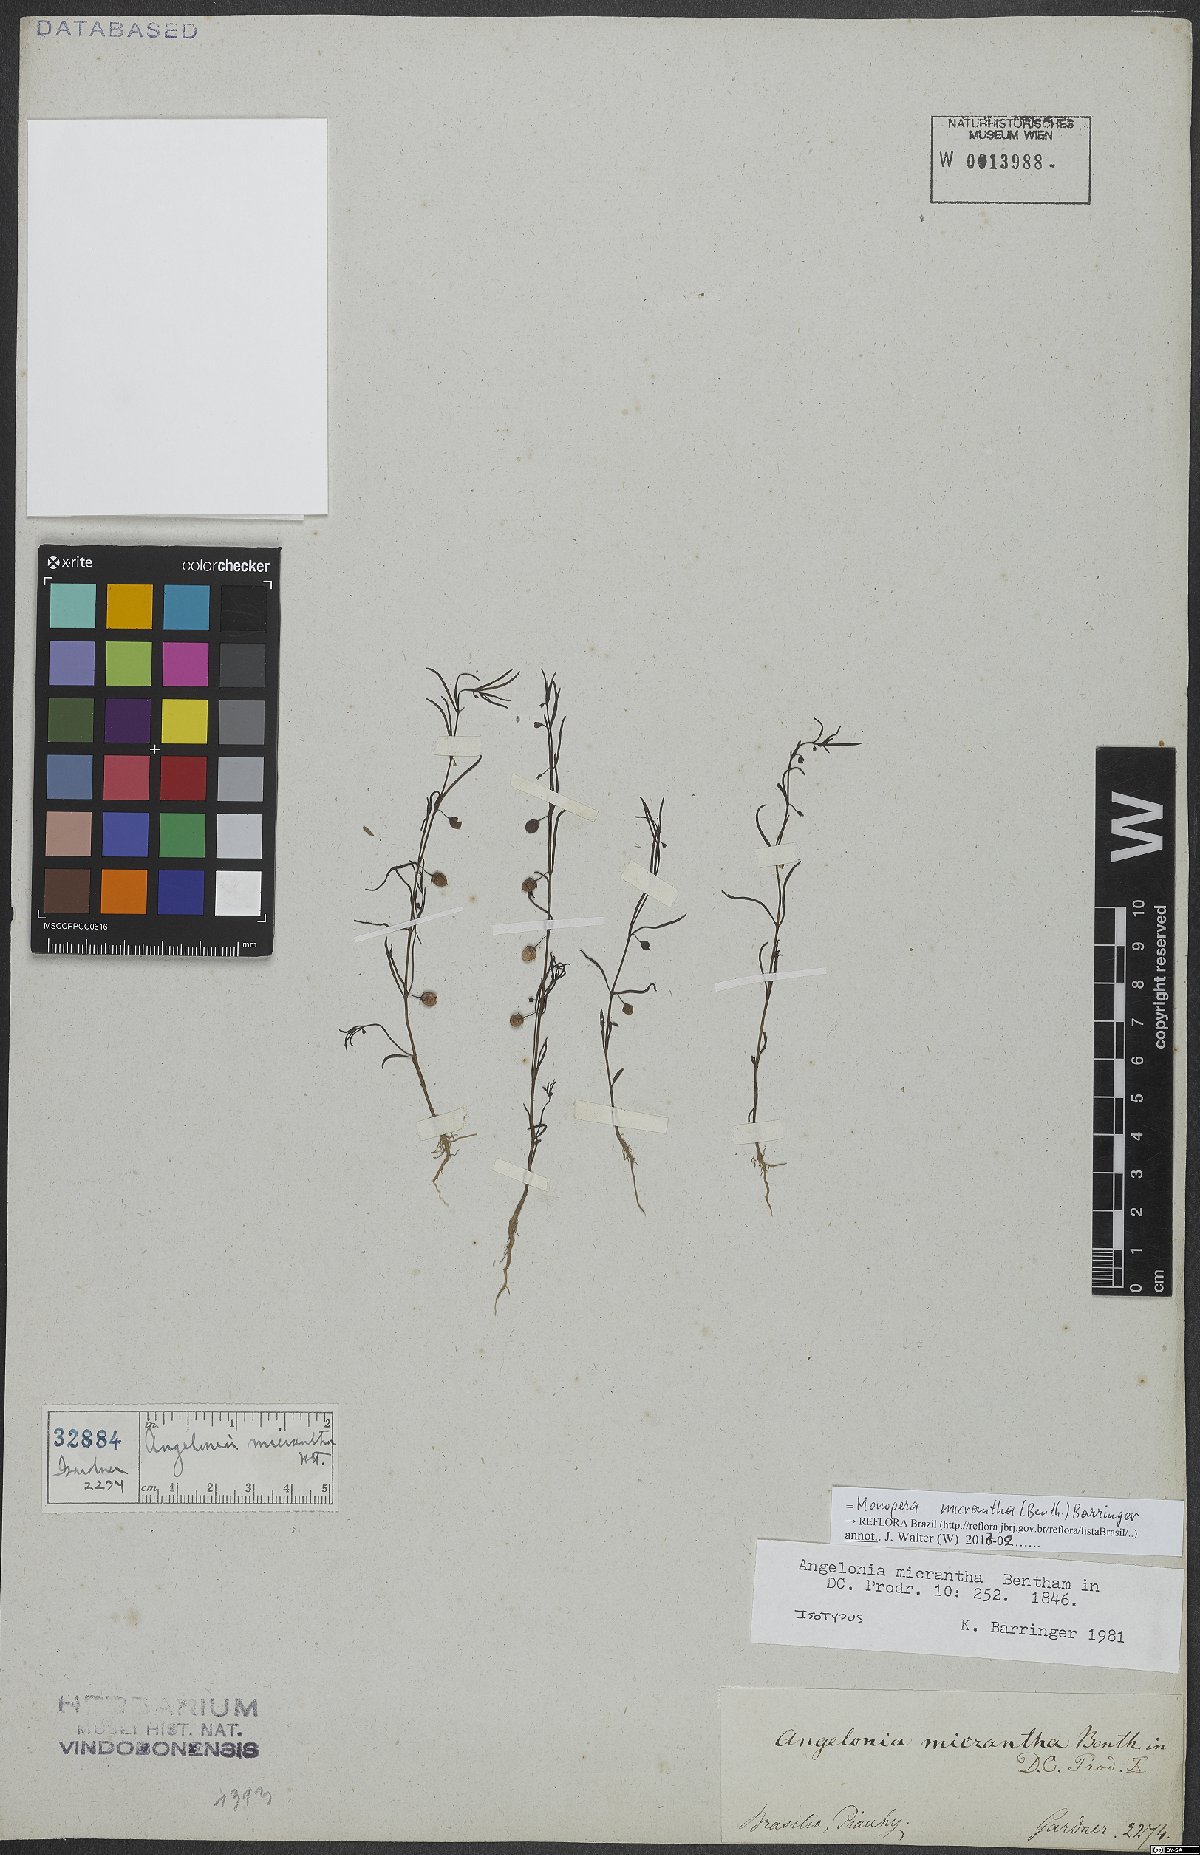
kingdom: Plantae
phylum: Tracheophyta
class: Magnoliopsida
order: Lamiales
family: Plantaginaceae
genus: Angelonia
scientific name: Angelonia micrantha
